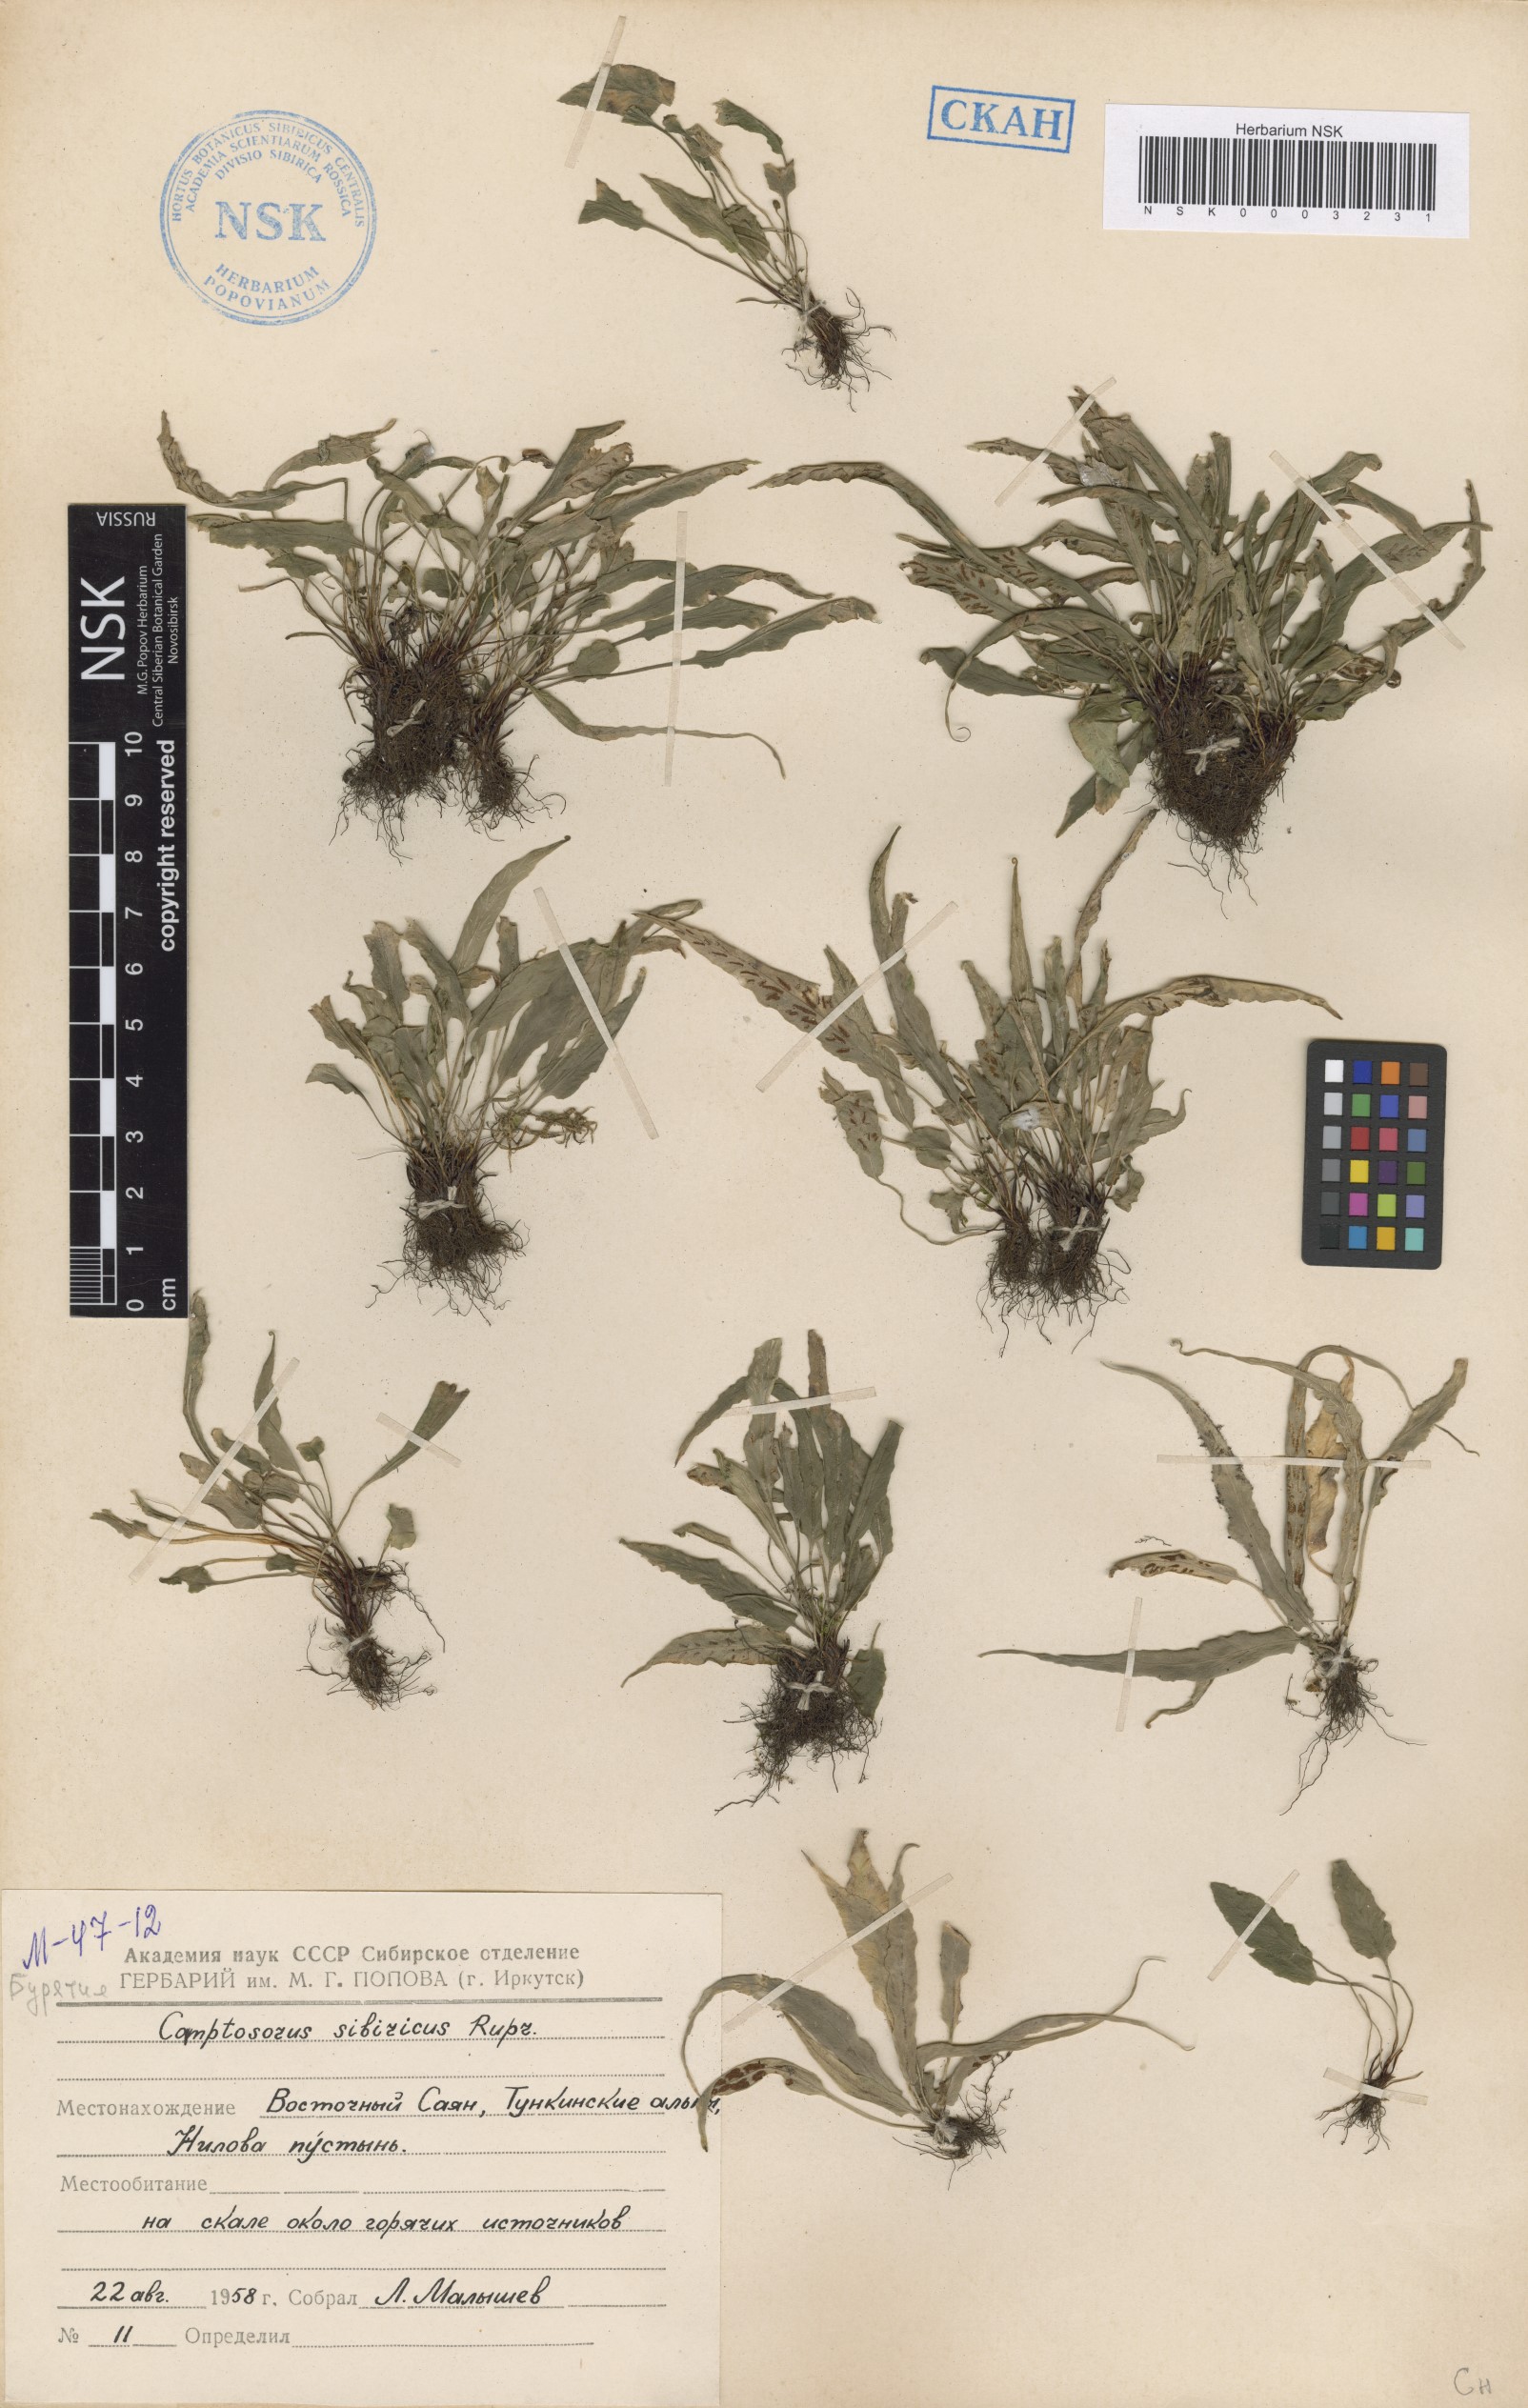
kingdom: Plantae
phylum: Tracheophyta
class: Polypodiopsida
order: Polypodiales
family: Aspleniaceae
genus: Asplenium
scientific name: Asplenium ruprechtii
